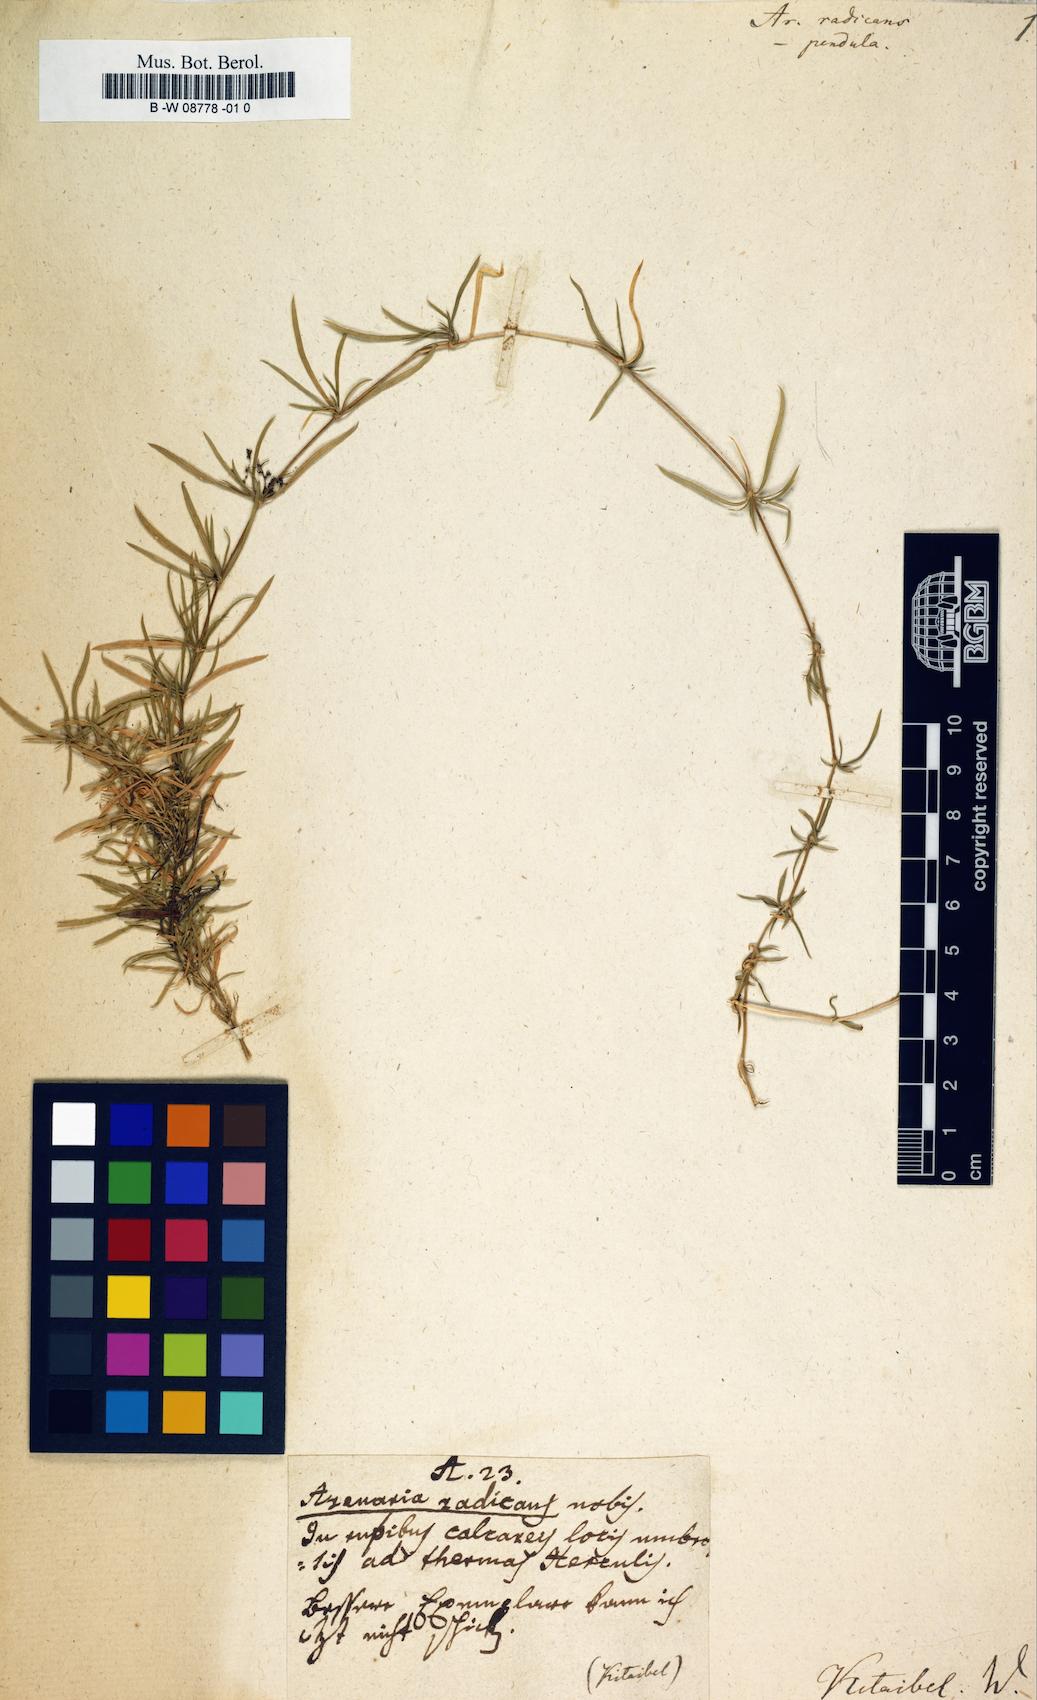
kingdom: Plantae
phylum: Tracheophyta
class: Magnoliopsida
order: Caryophyllales
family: Caryophyllaceae
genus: Spergularia
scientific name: Spergularia rubra
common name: Red sand-spurrey
